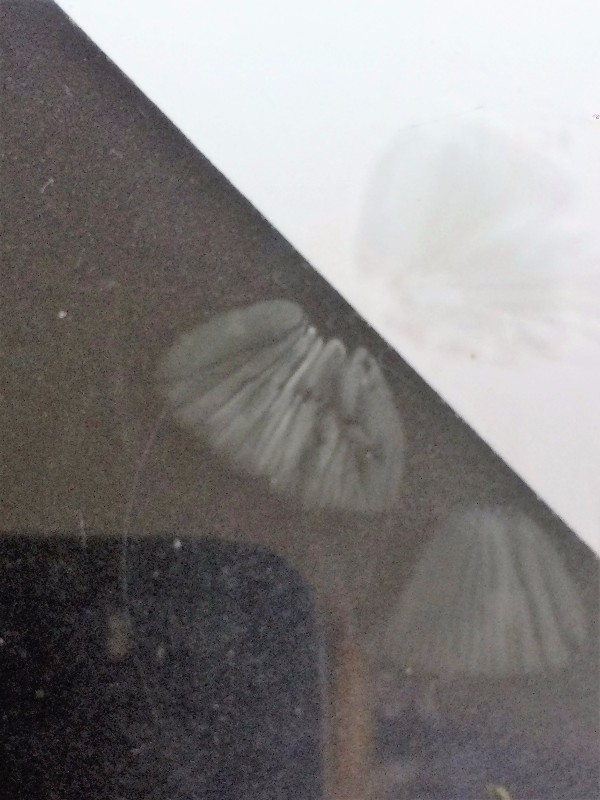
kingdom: Fungi
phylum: Basidiomycota
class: Agaricomycetes
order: Agaricales
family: Mycenaceae
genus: Mycena
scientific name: Mycena galopus
